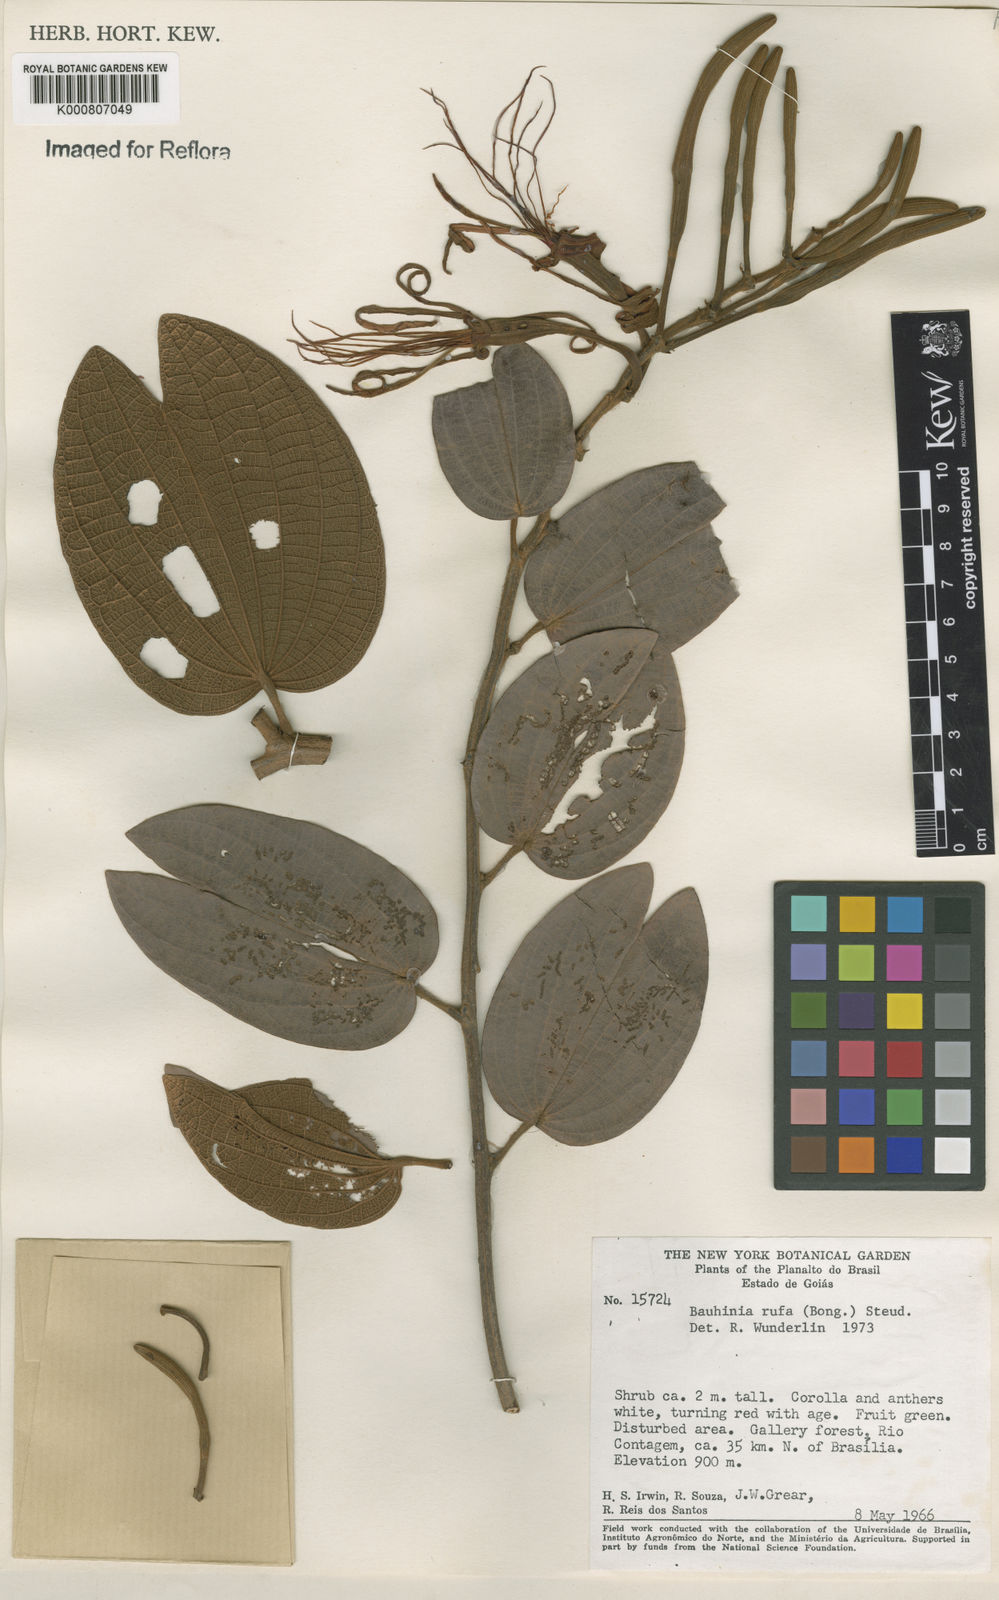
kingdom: Plantae
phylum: Tracheophyta
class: Magnoliopsida
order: Fabales
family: Fabaceae
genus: Bauhinia
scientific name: Bauhinia rufa
